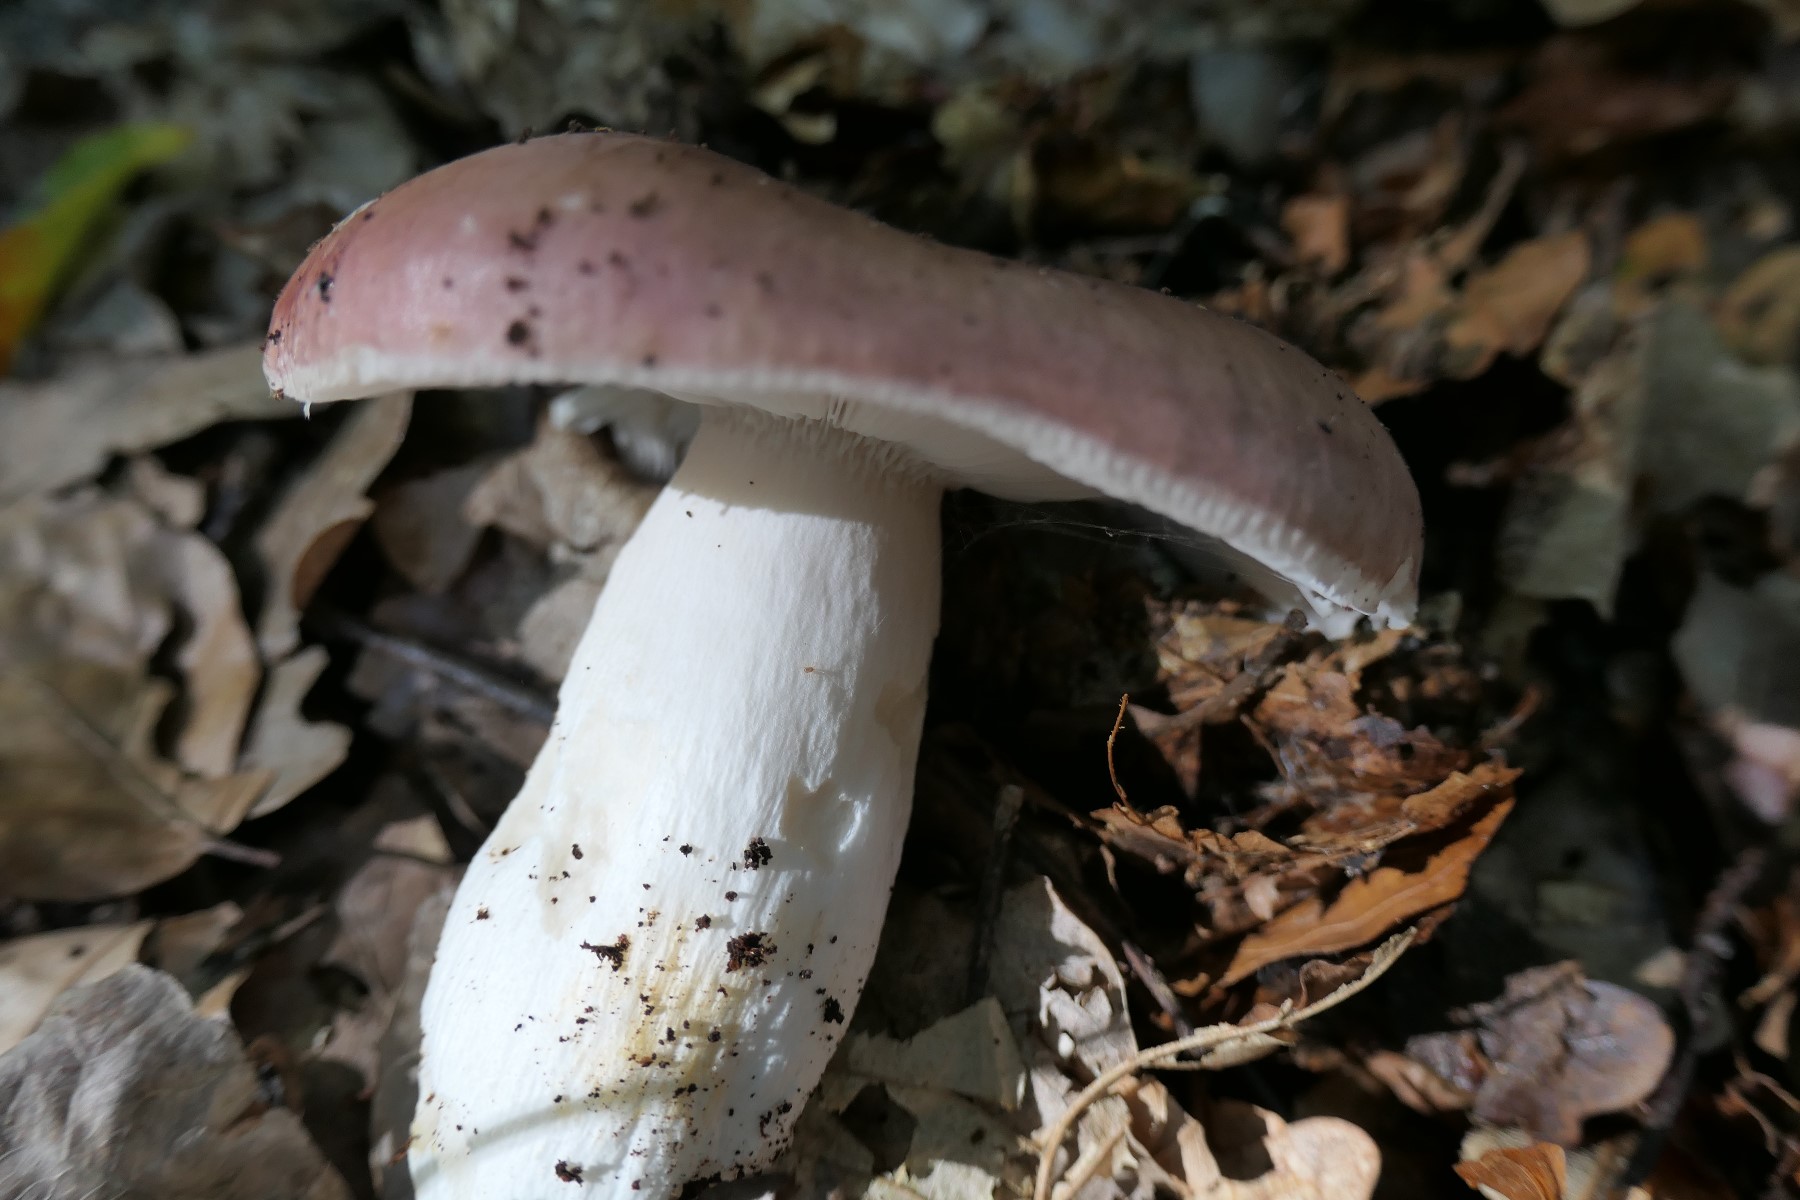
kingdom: Fungi
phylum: Basidiomycota
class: Agaricomycetes
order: Russulales
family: Russulaceae
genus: Russula
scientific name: Russula vesca
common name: spiselig skørhat
